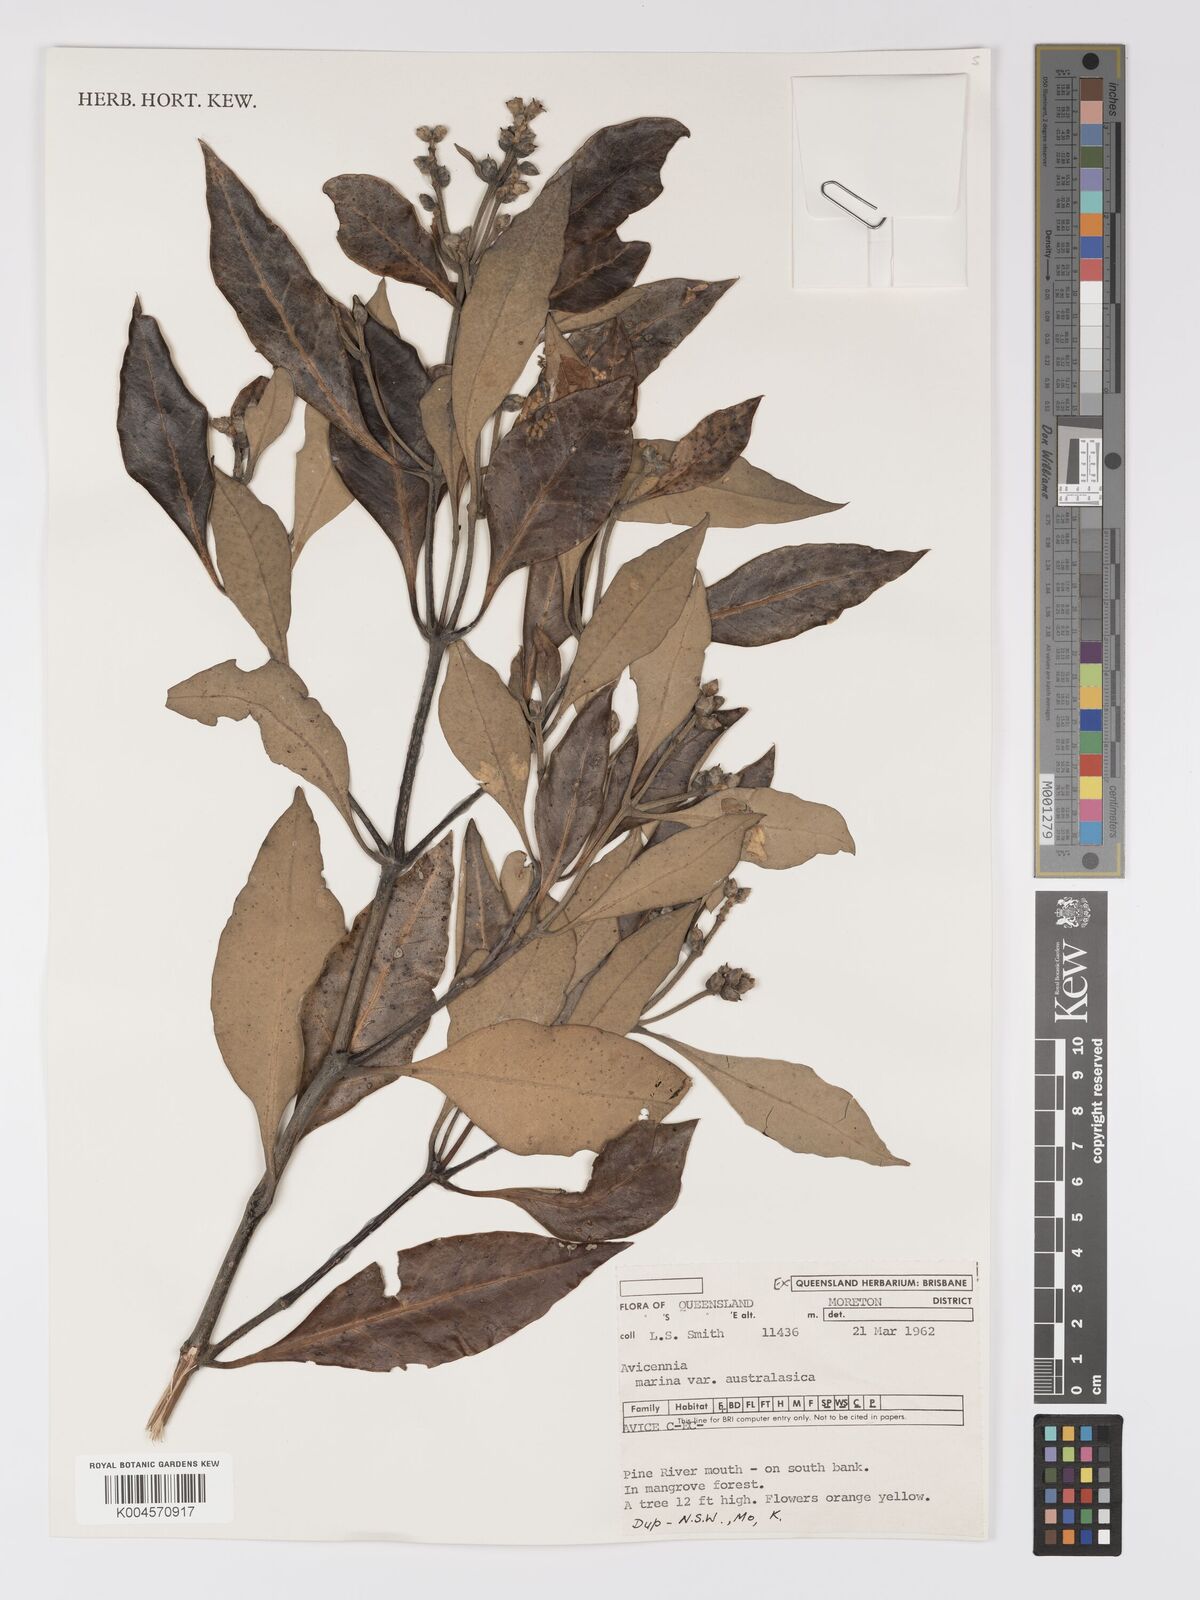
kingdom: Plantae
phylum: Tracheophyta
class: Magnoliopsida
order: Lamiales
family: Acanthaceae
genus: Avicennia
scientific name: Avicennia marina
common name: Gray mangrove
